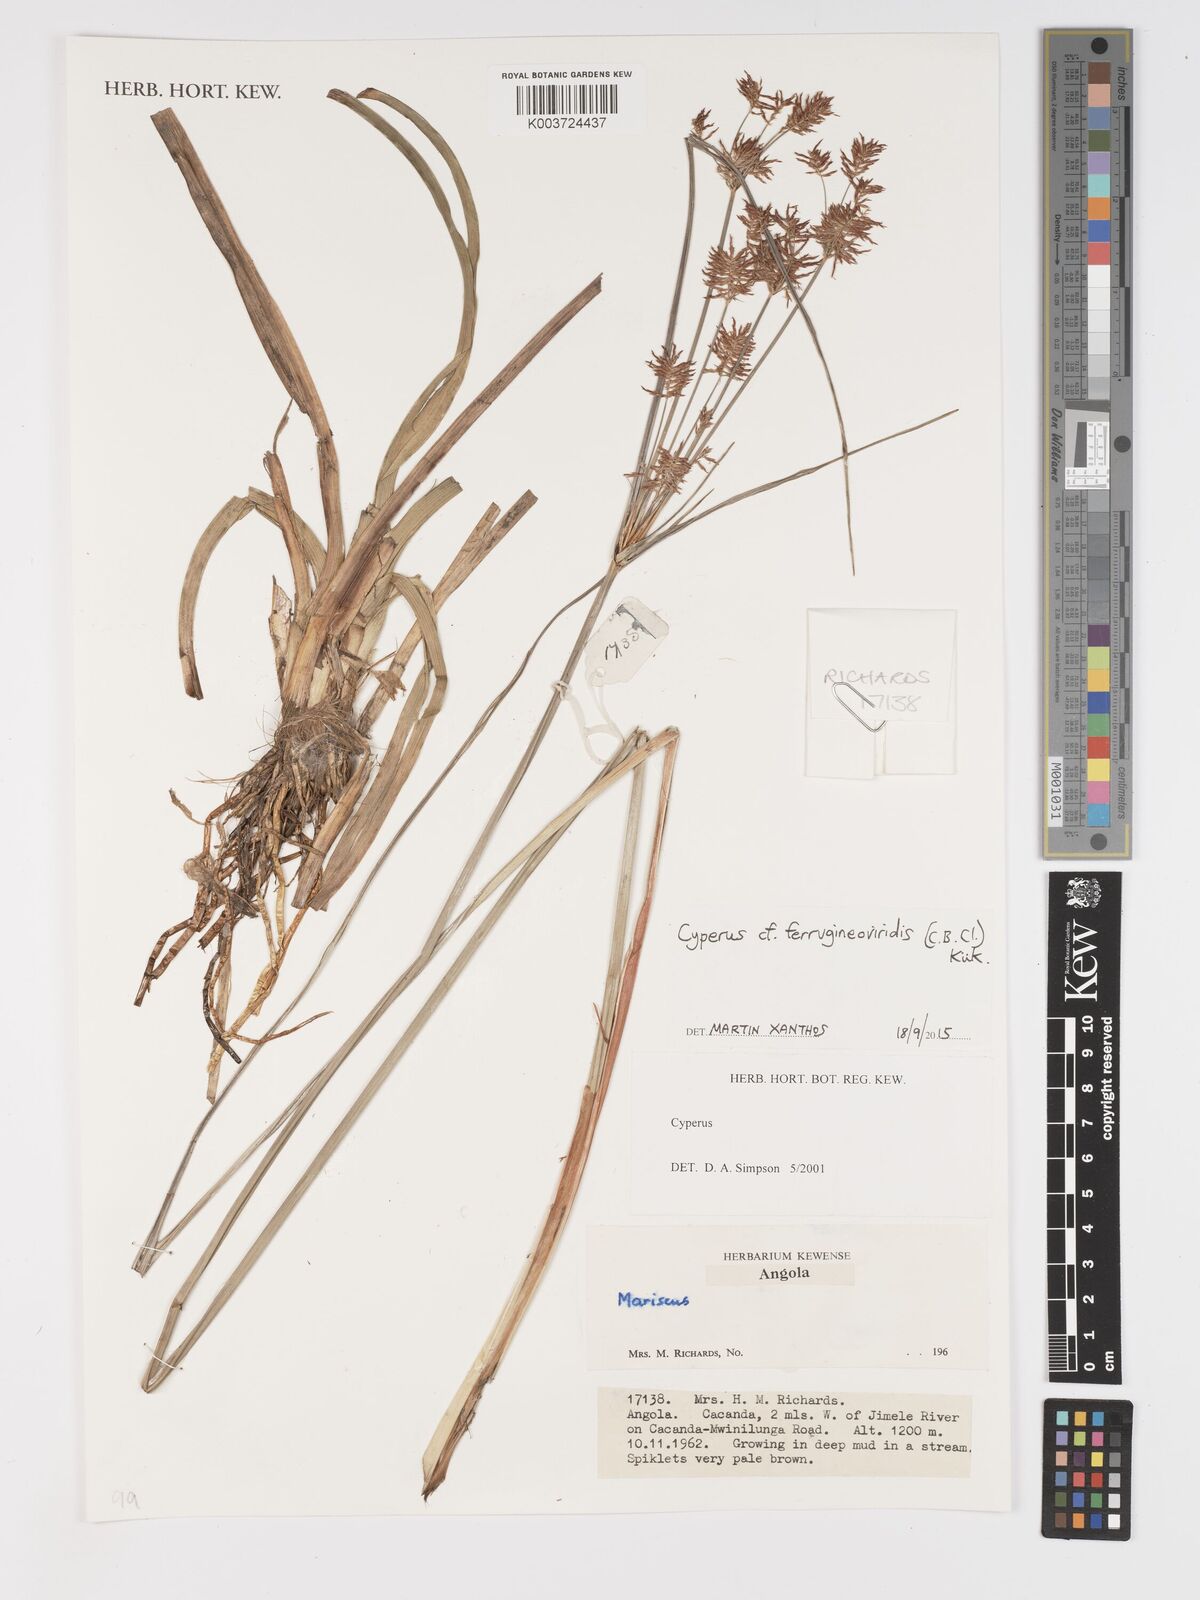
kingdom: Plantae
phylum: Tracheophyta
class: Liliopsida
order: Poales
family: Cyperaceae
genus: Cyperus
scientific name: Cyperus ferrugineoviridis
